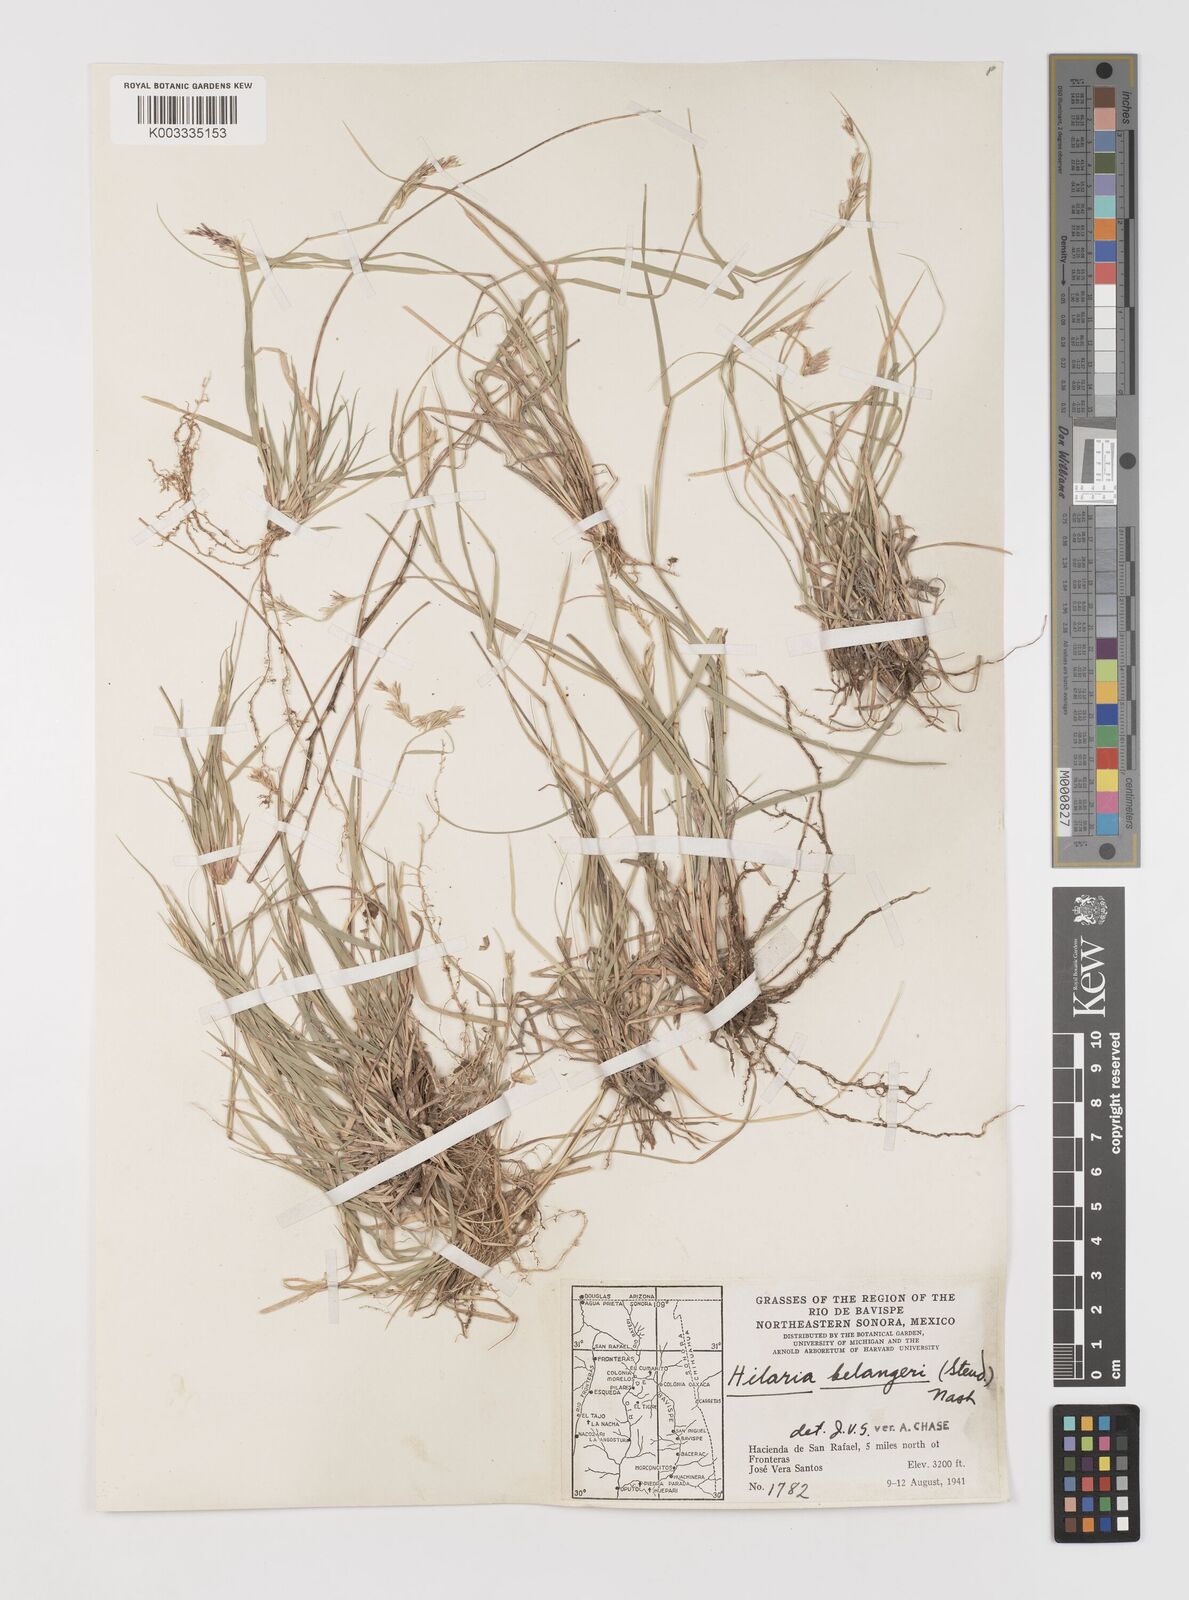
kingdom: Plantae
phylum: Tracheophyta
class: Liliopsida
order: Poales
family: Poaceae
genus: Hilaria
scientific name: Hilaria belangeri
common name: Curly-mesquite
